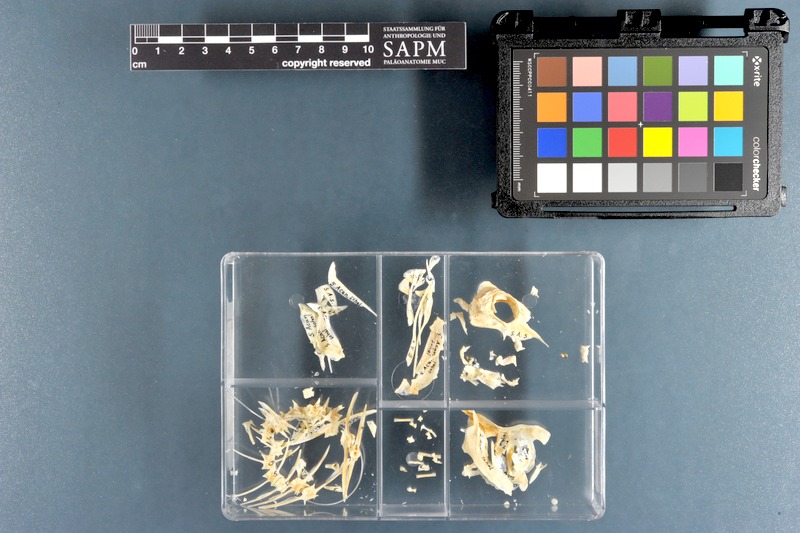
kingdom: Animalia
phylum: Chordata
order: Perciformes
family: Acanthuridae
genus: Acanthurus
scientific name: Acanthurus sohal
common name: Red sea surgeonfish
